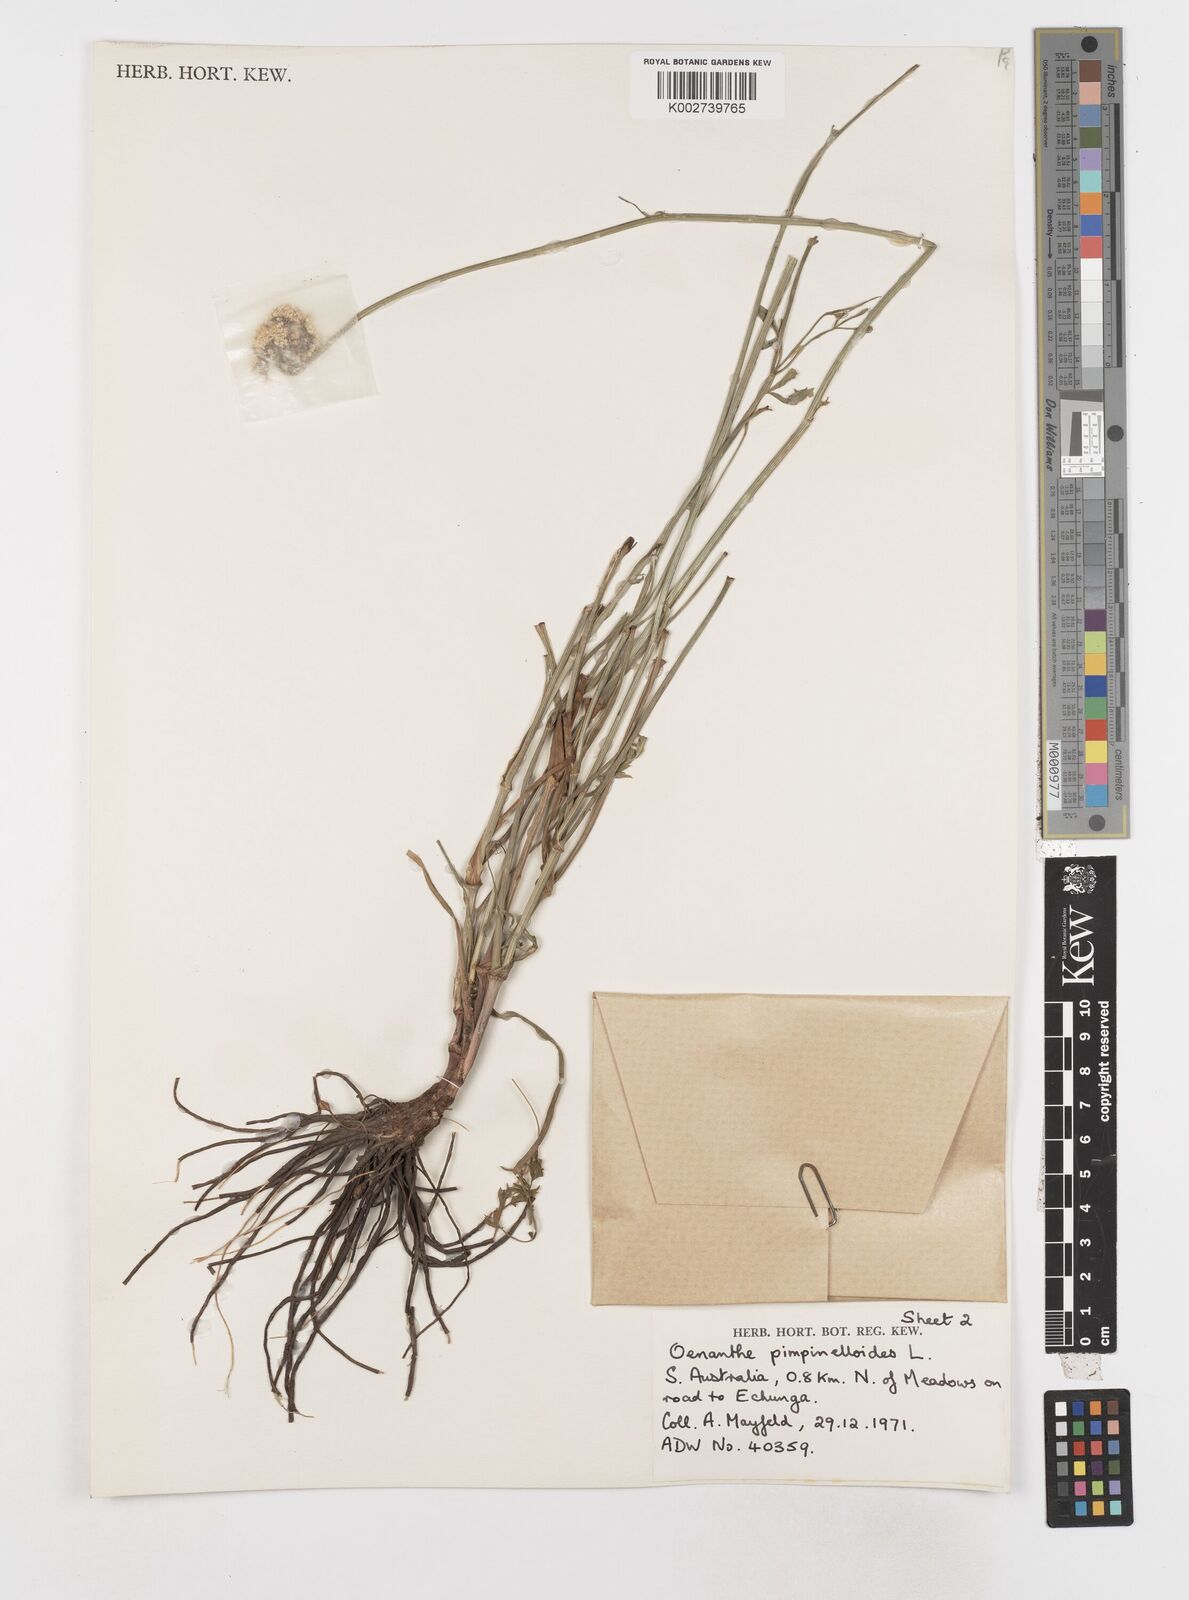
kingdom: Plantae
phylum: Tracheophyta
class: Magnoliopsida
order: Apiales
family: Apiaceae
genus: Oenanthe
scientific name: Oenanthe pimpinelloides
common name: Corky-fruited water-dropwort
